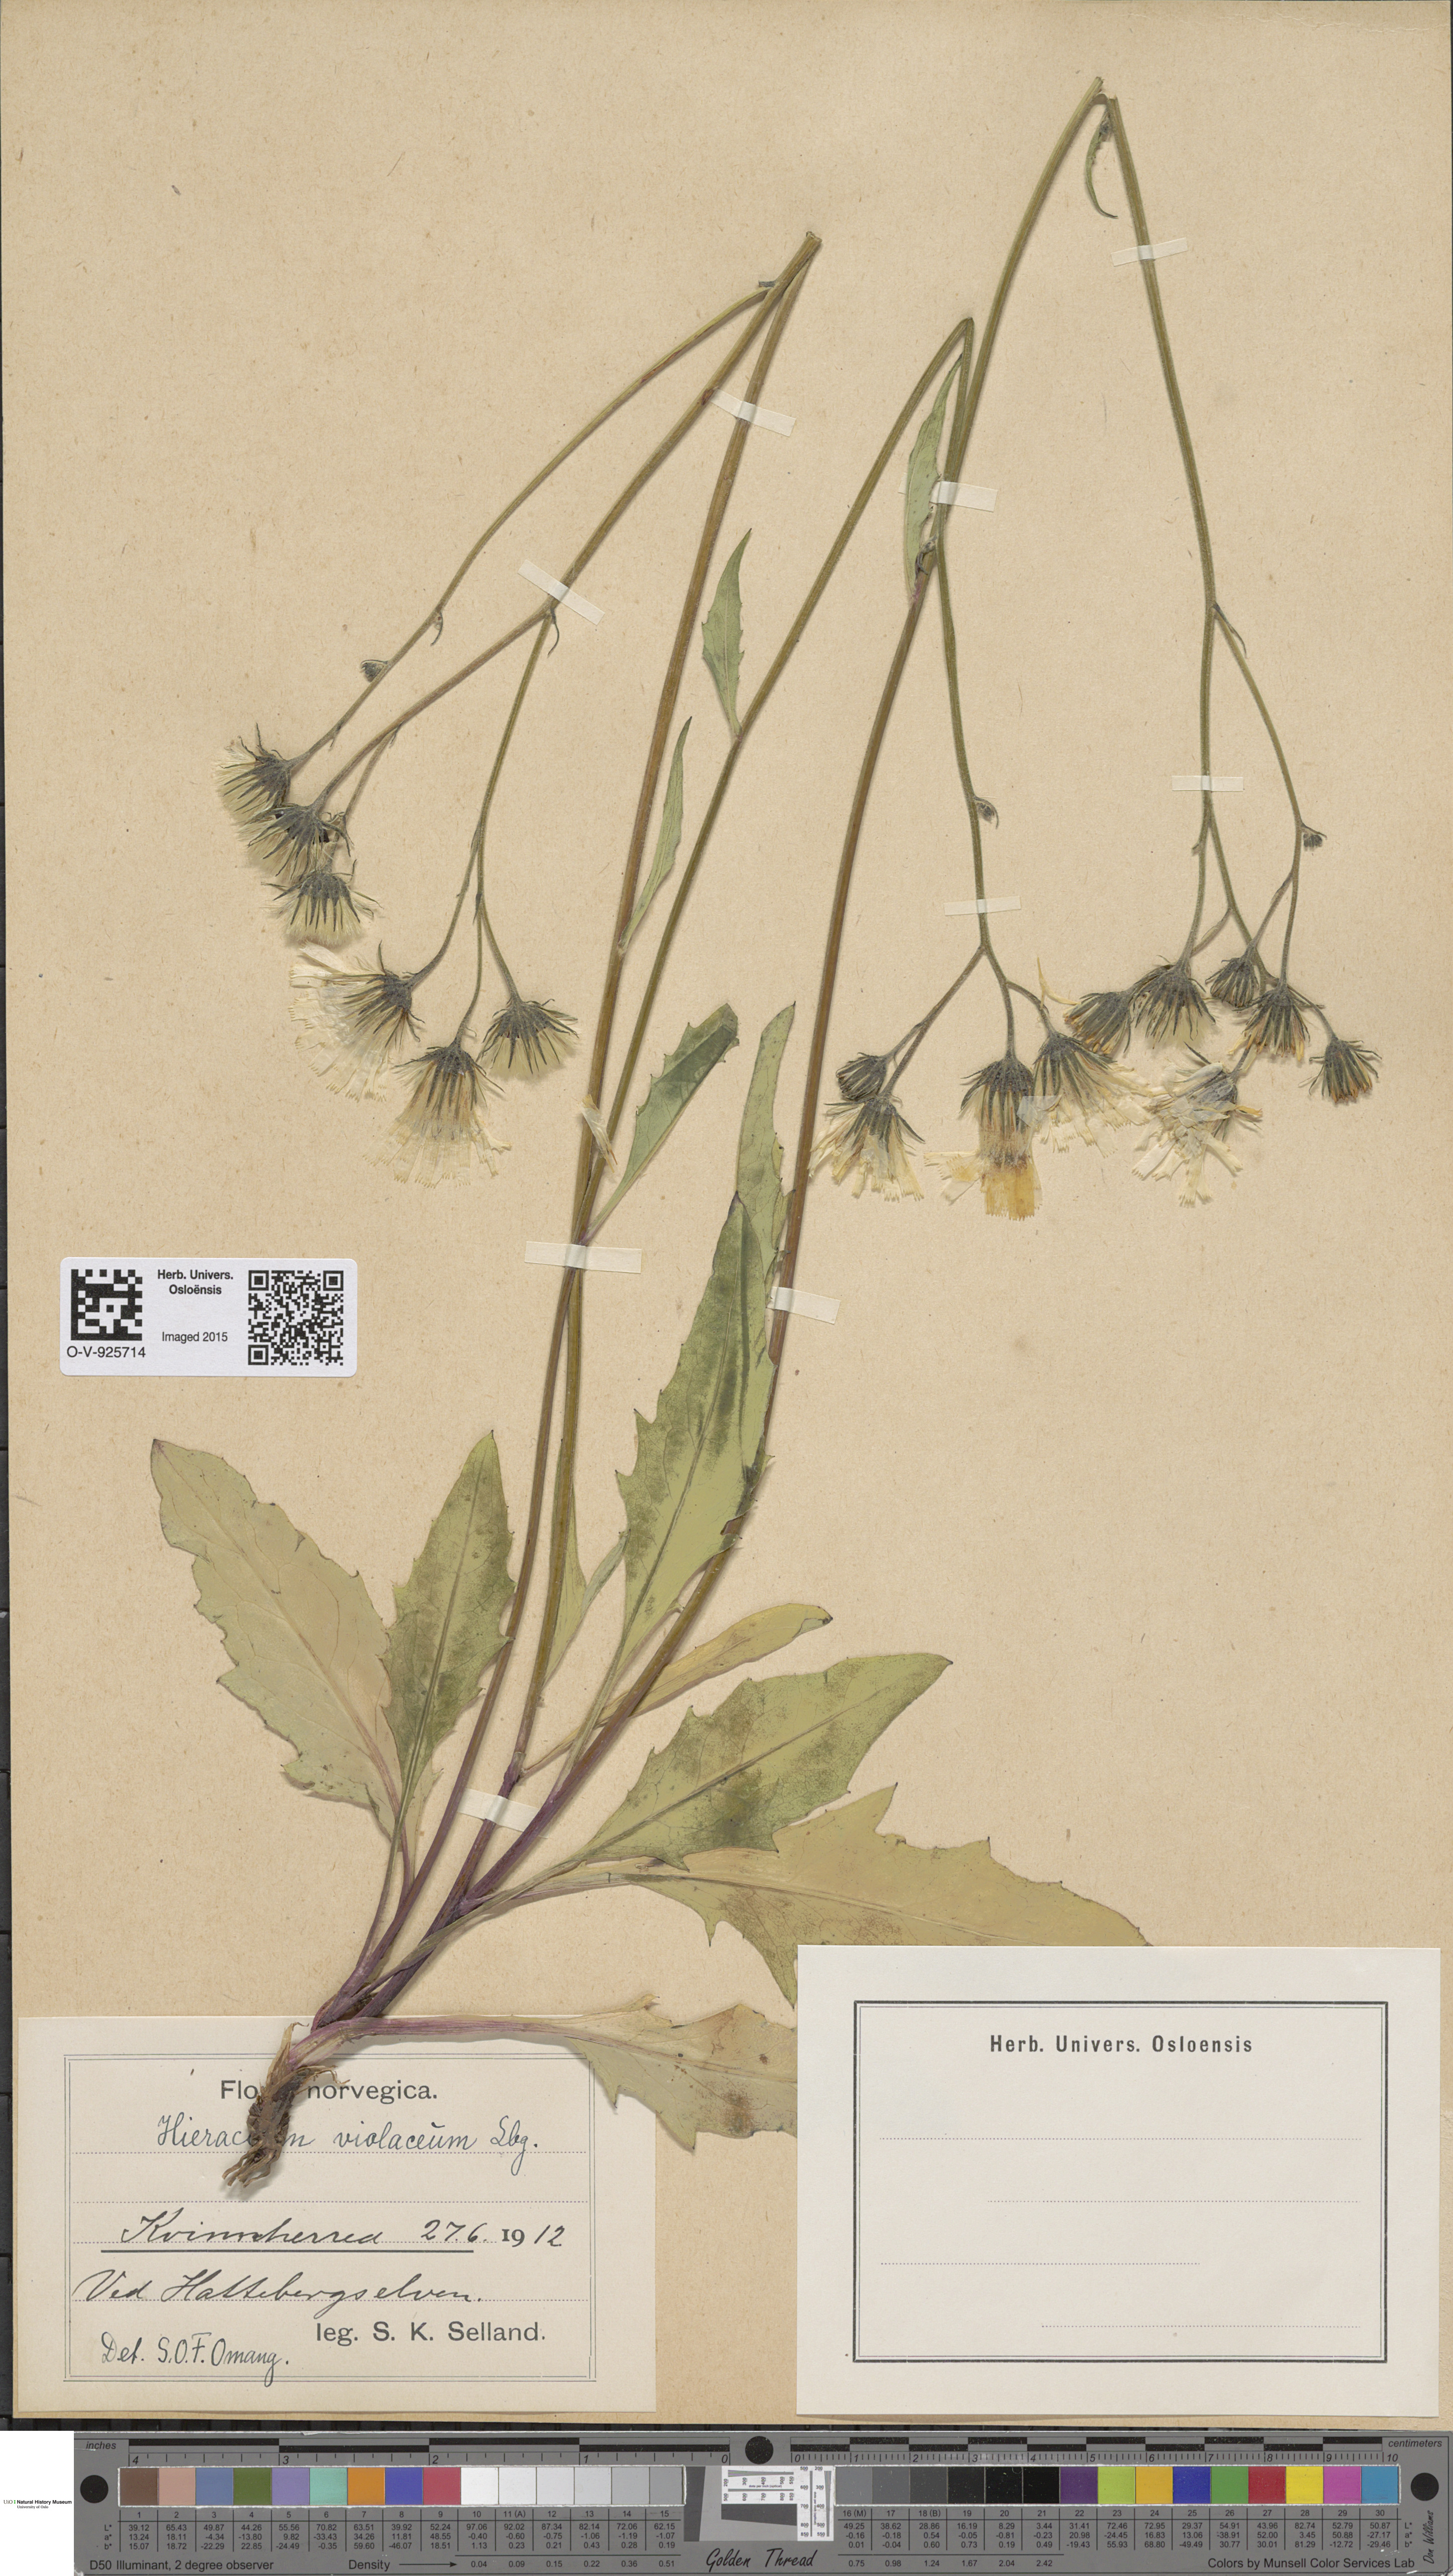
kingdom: Plantae
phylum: Tracheophyta
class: Magnoliopsida
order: Asterales
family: Asteraceae
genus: Hieracium
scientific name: Hieracium
